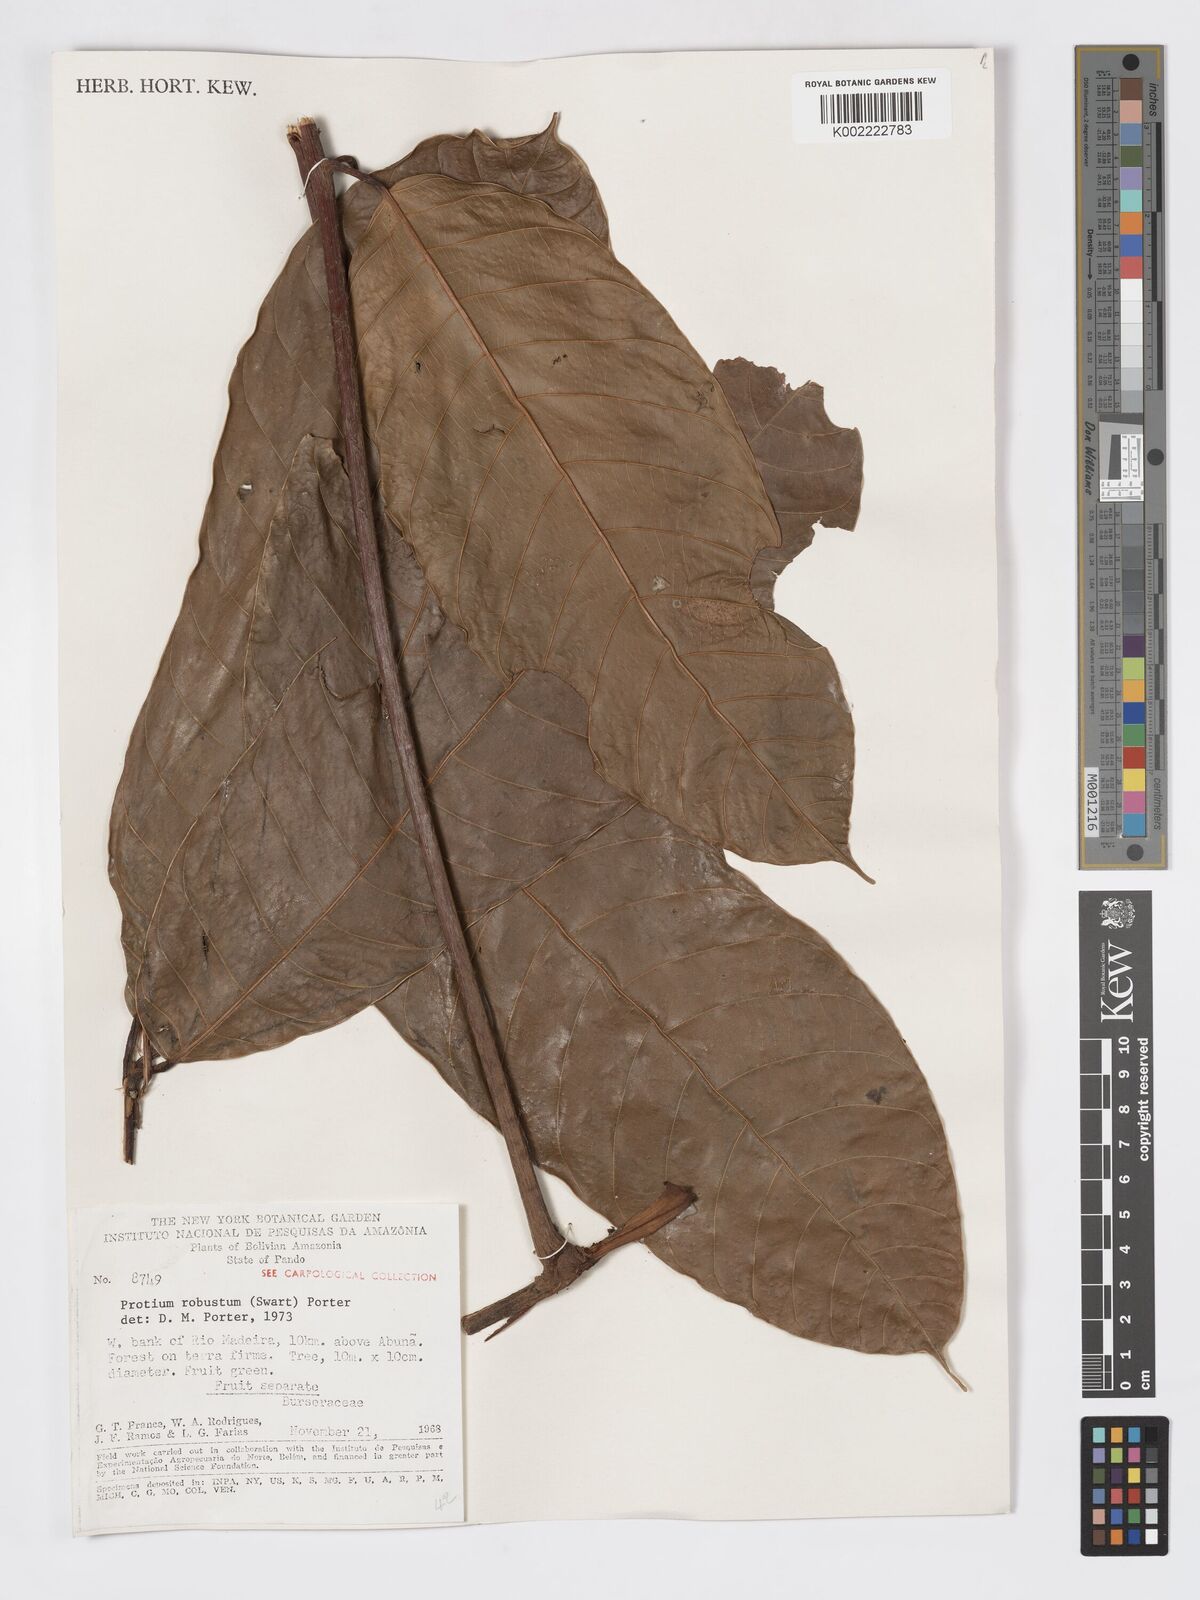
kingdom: Plantae
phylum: Tracheophyta
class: Magnoliopsida
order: Sapindales
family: Burseraceae
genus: Protium
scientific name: Protium robustum
